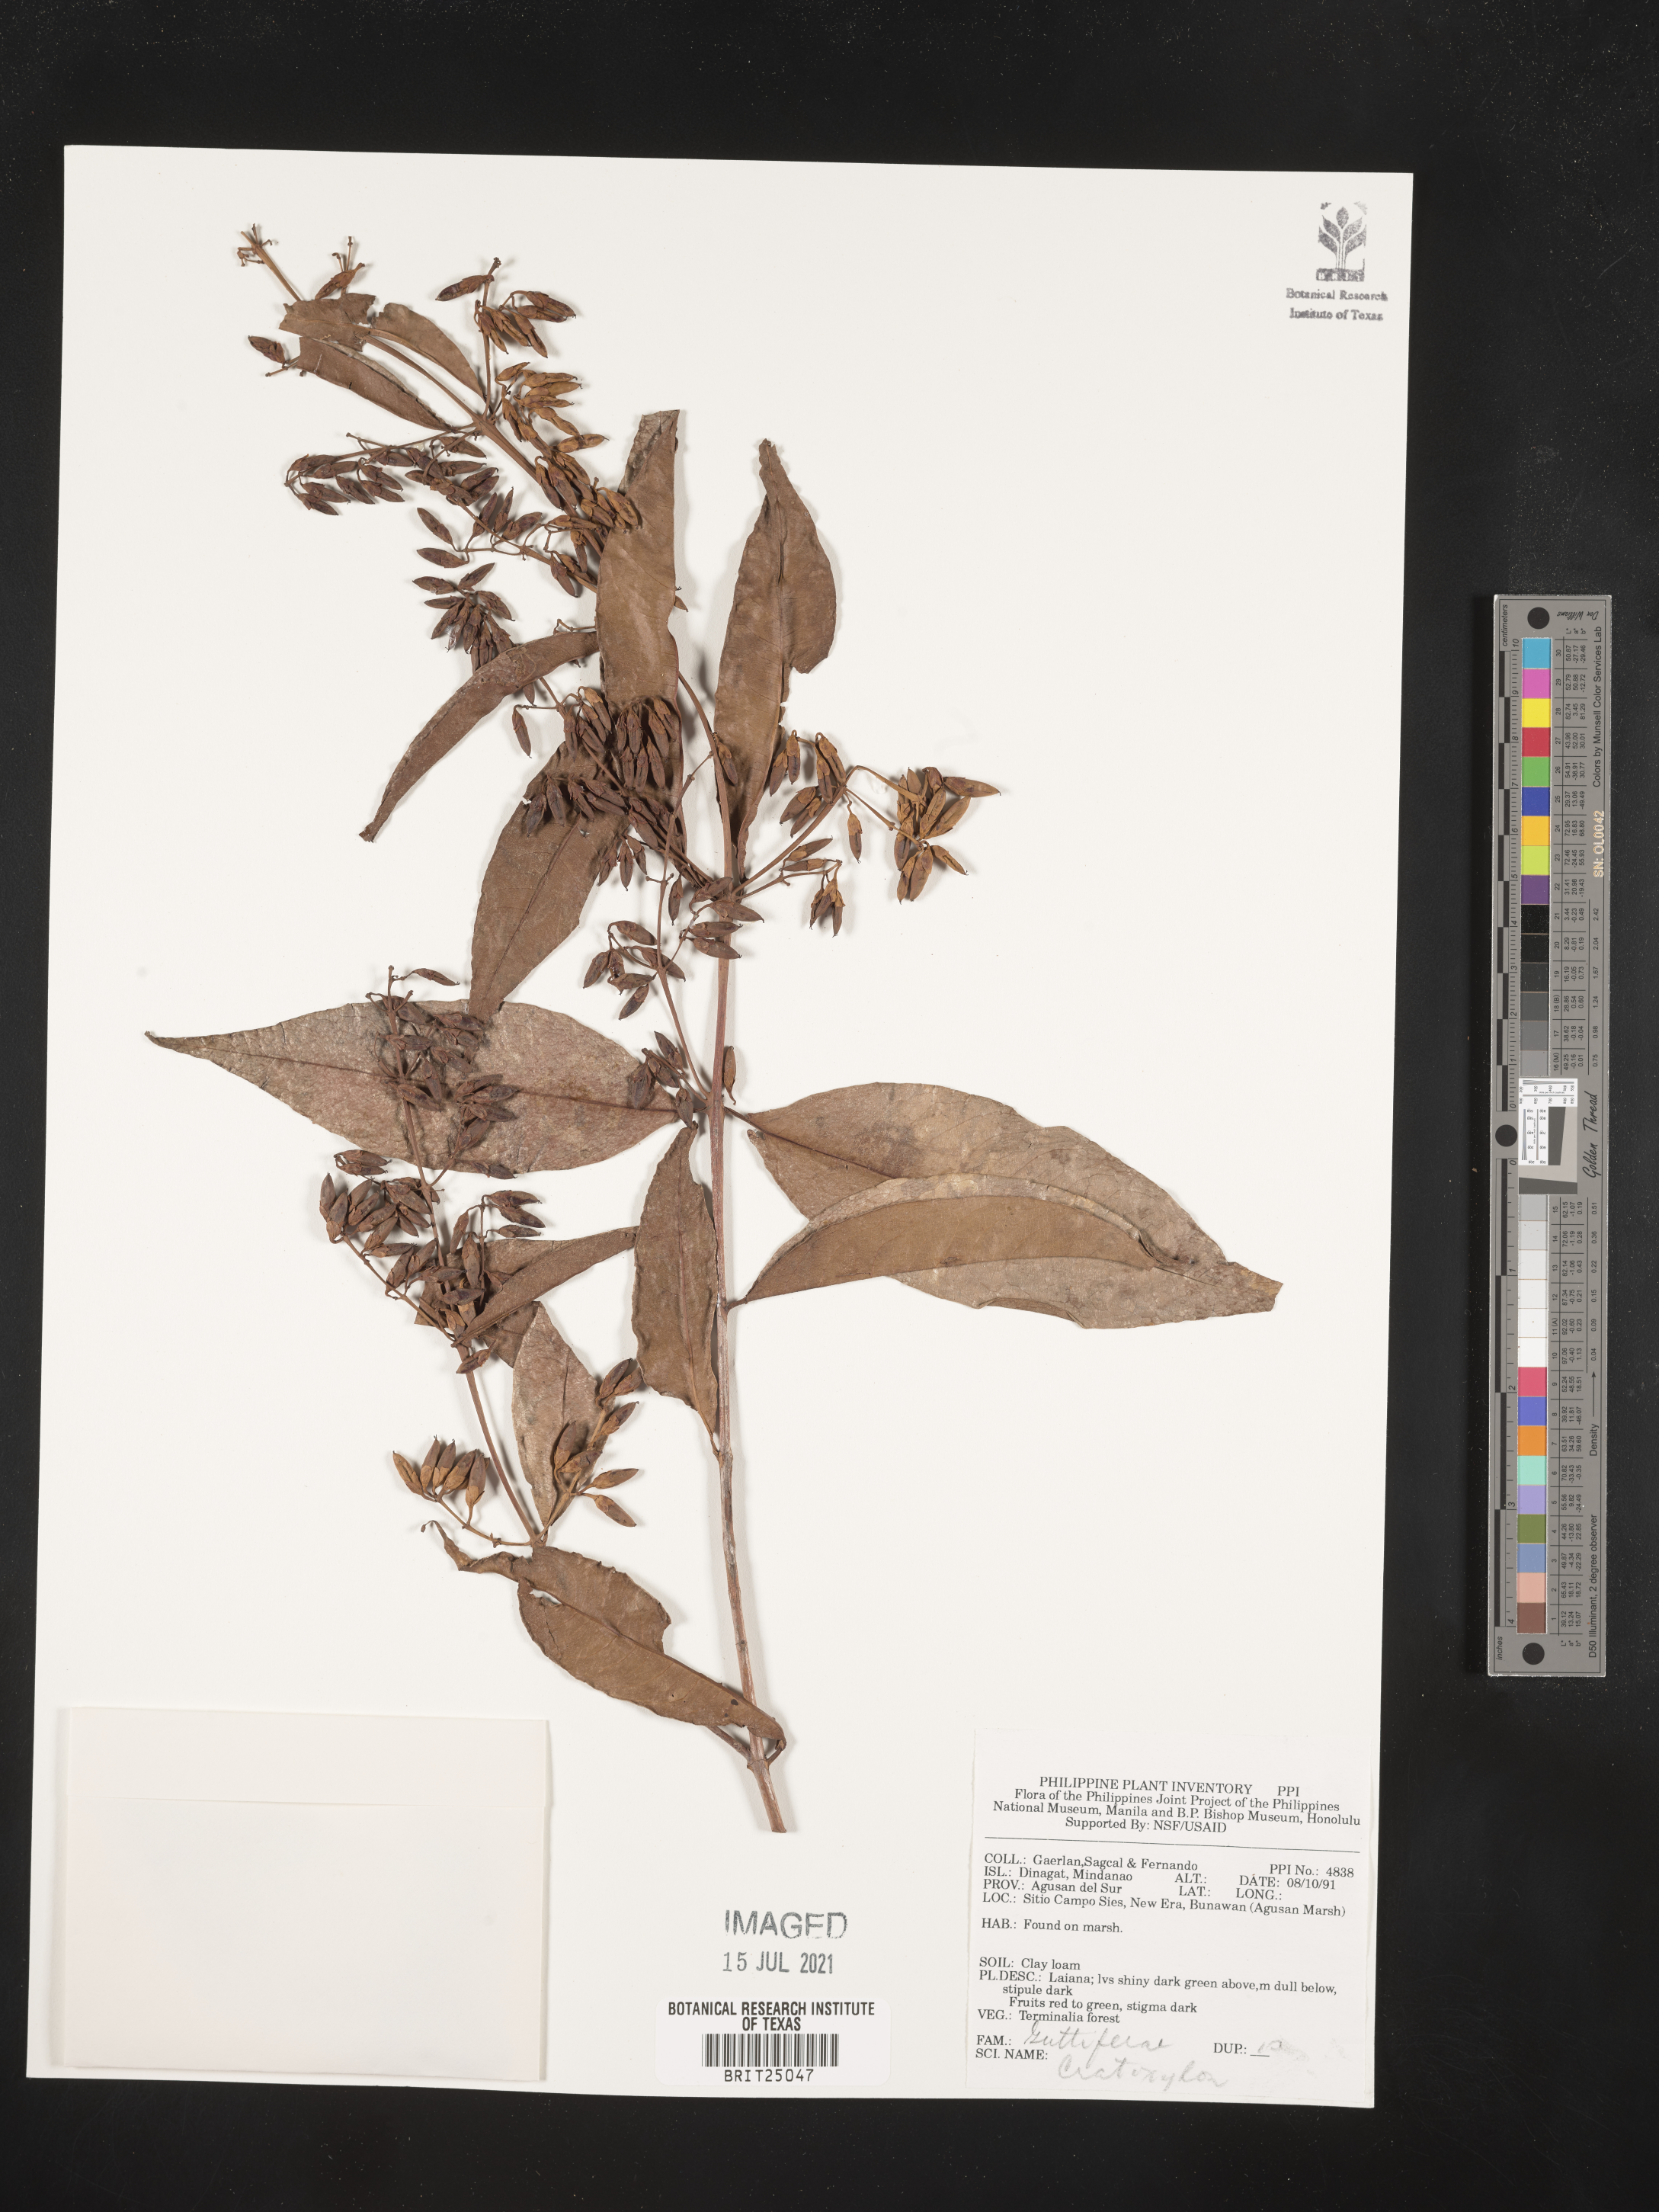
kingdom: Plantae
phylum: Tracheophyta
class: Magnoliopsida
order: Malpighiales
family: Hypericaceae
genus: Cratoxylum
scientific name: Cratoxylum
